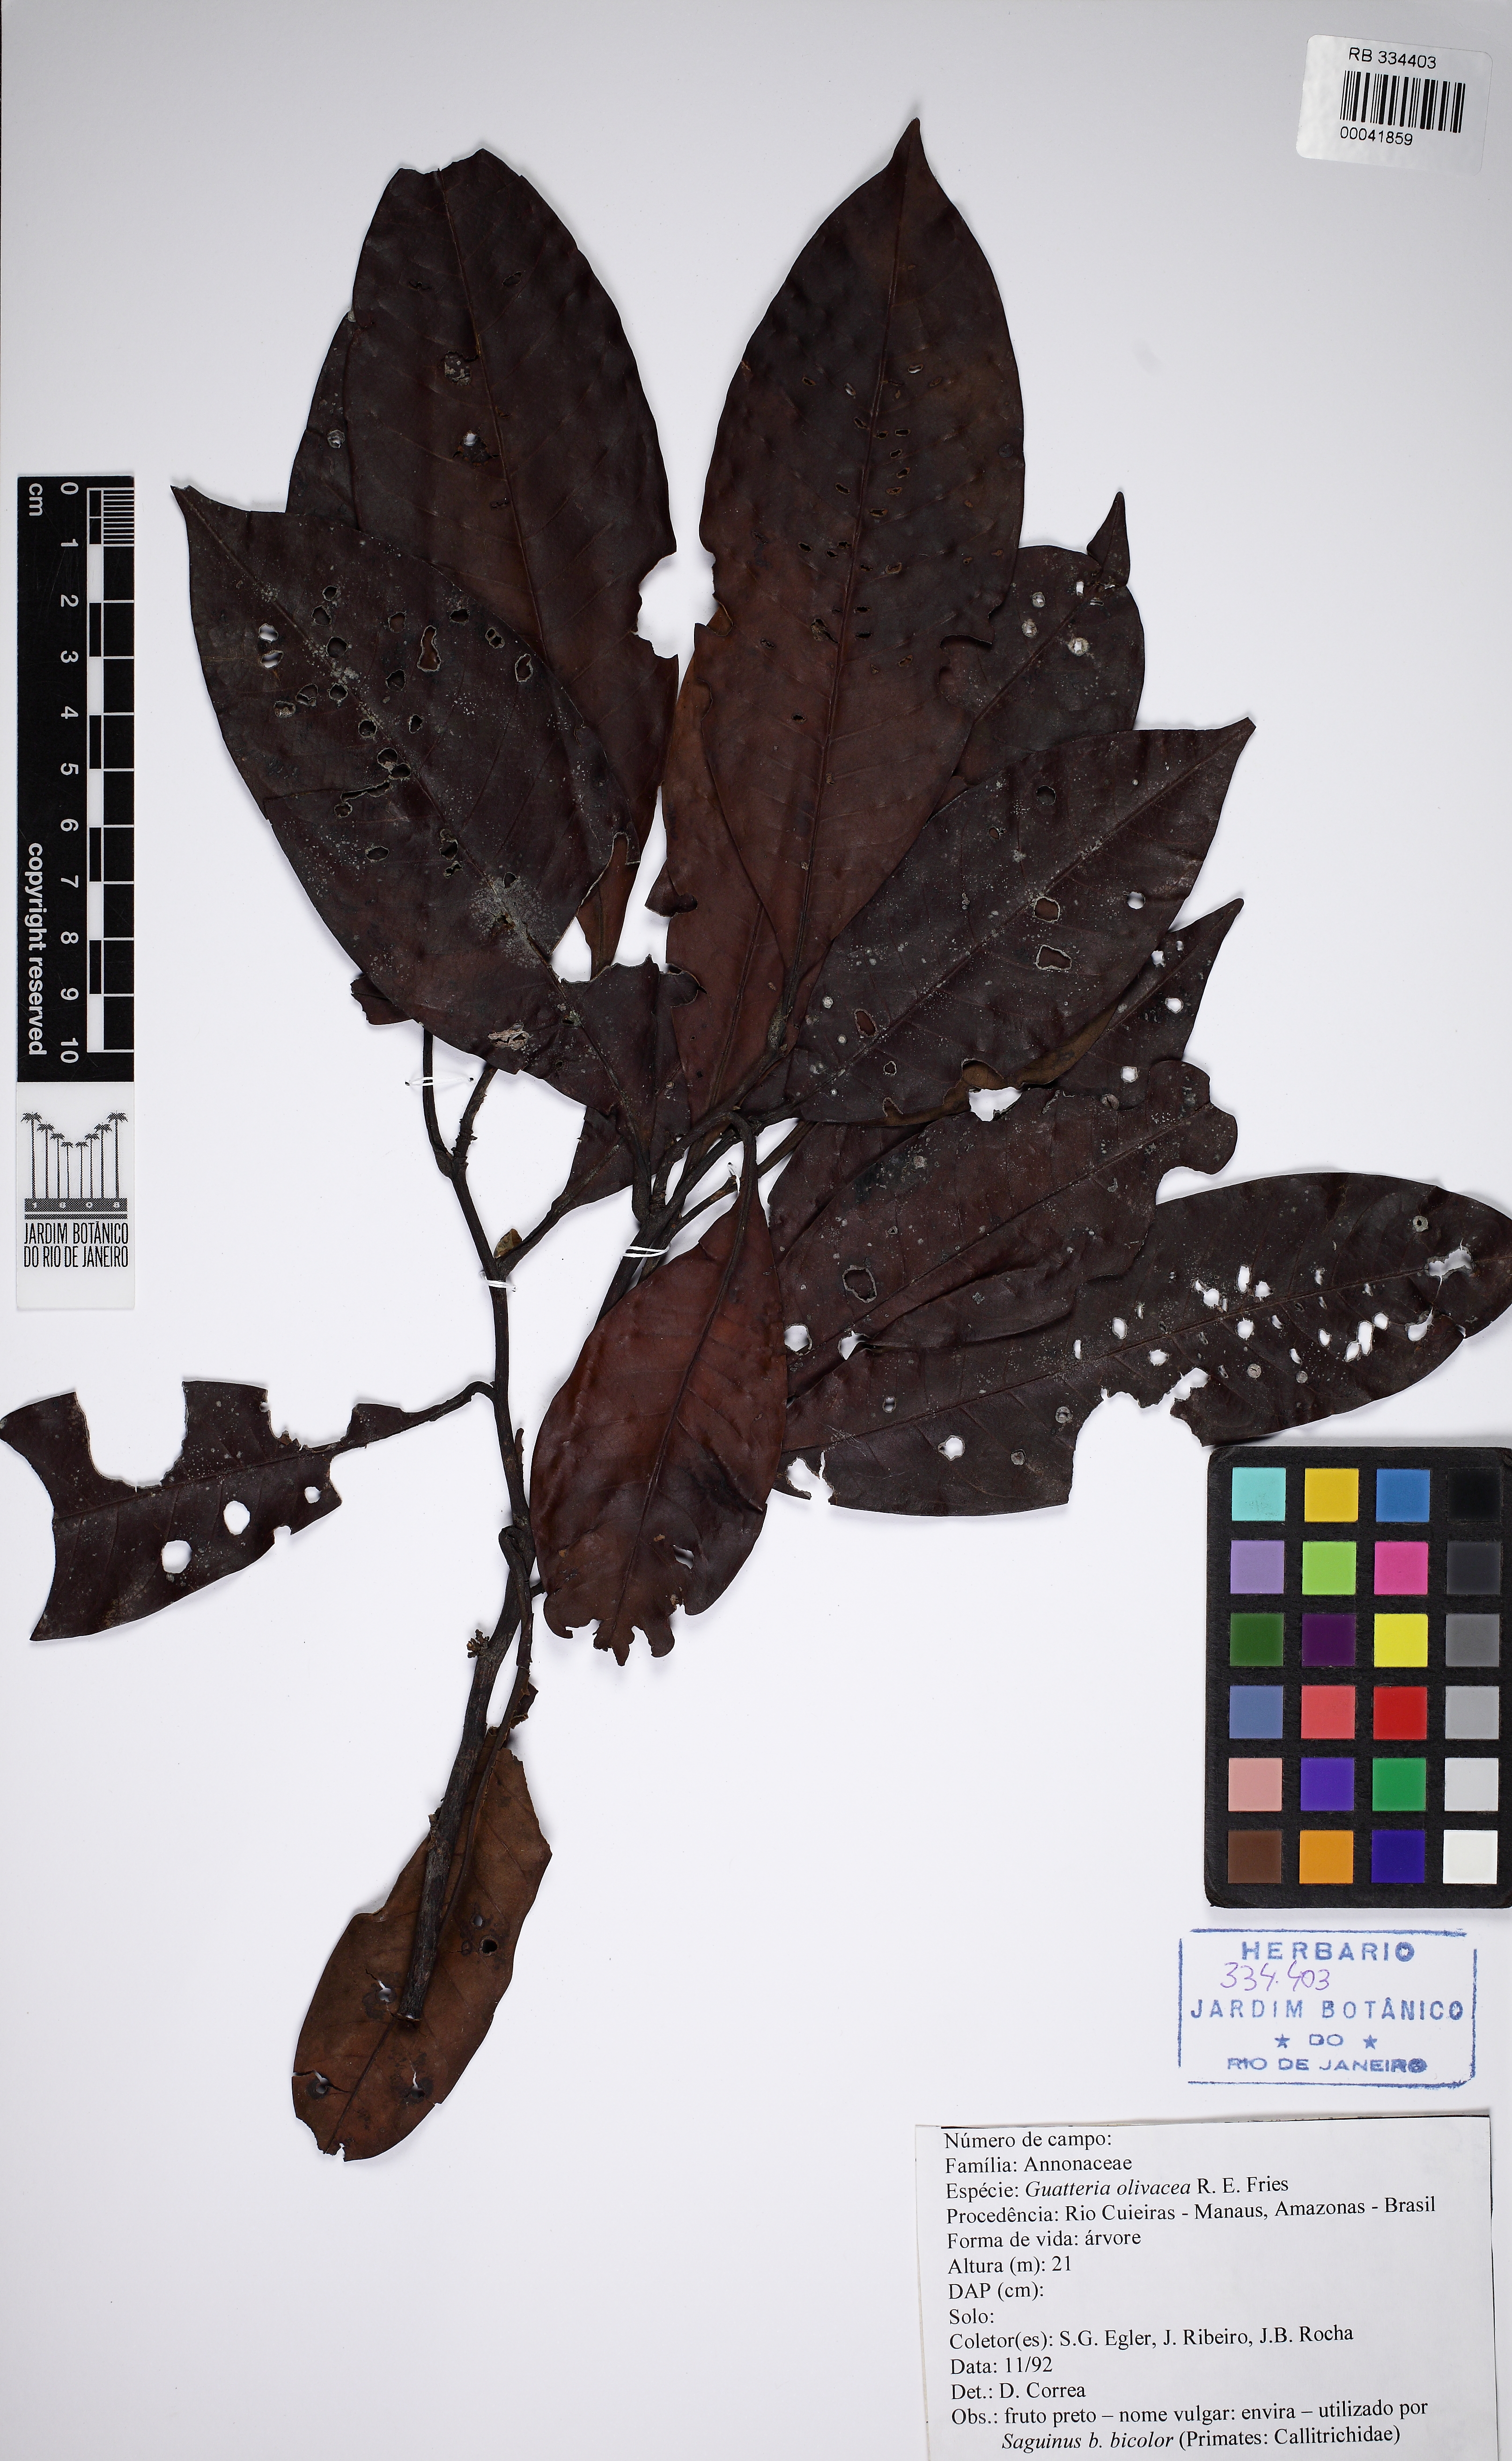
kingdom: Plantae
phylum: Tracheophyta
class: Magnoliopsida
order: Magnoliales
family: Annonaceae
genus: Guatteria
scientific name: Guatteria olivacea
